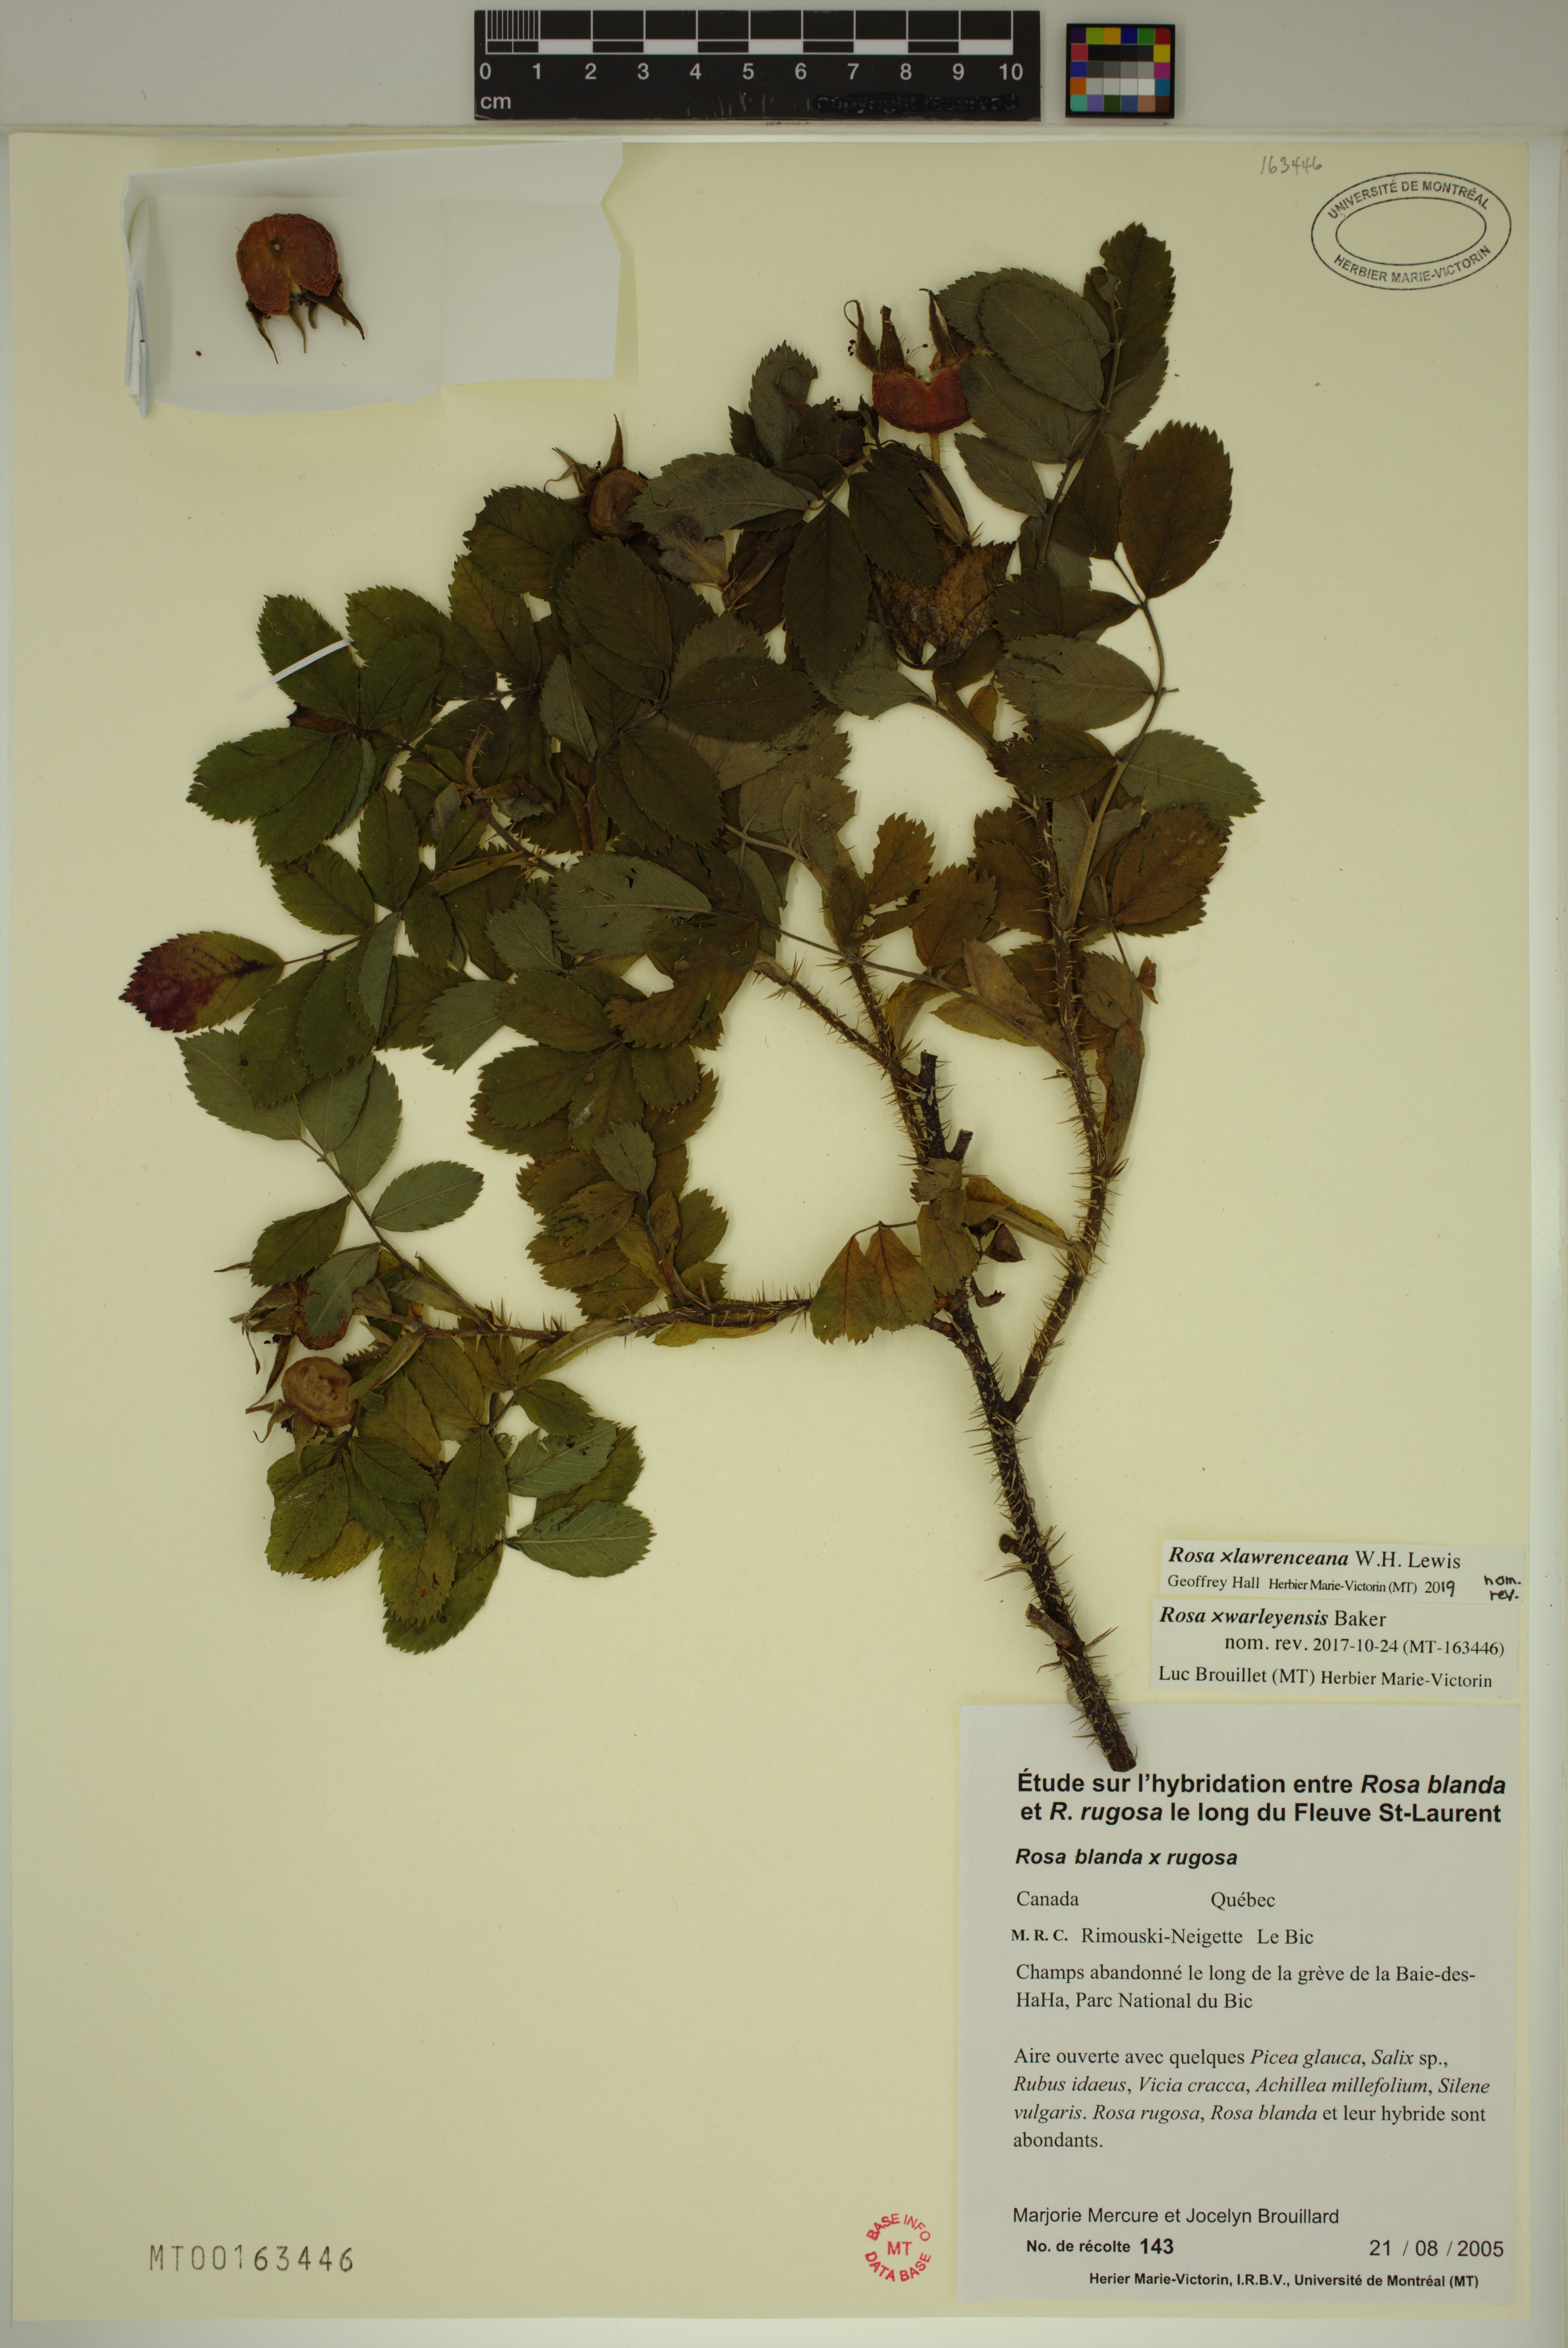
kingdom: Plantae
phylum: Tracheophyta
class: Magnoliopsida
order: Rosales
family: Rosaceae
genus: Rosa
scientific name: Rosa chinensis
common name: China rose
